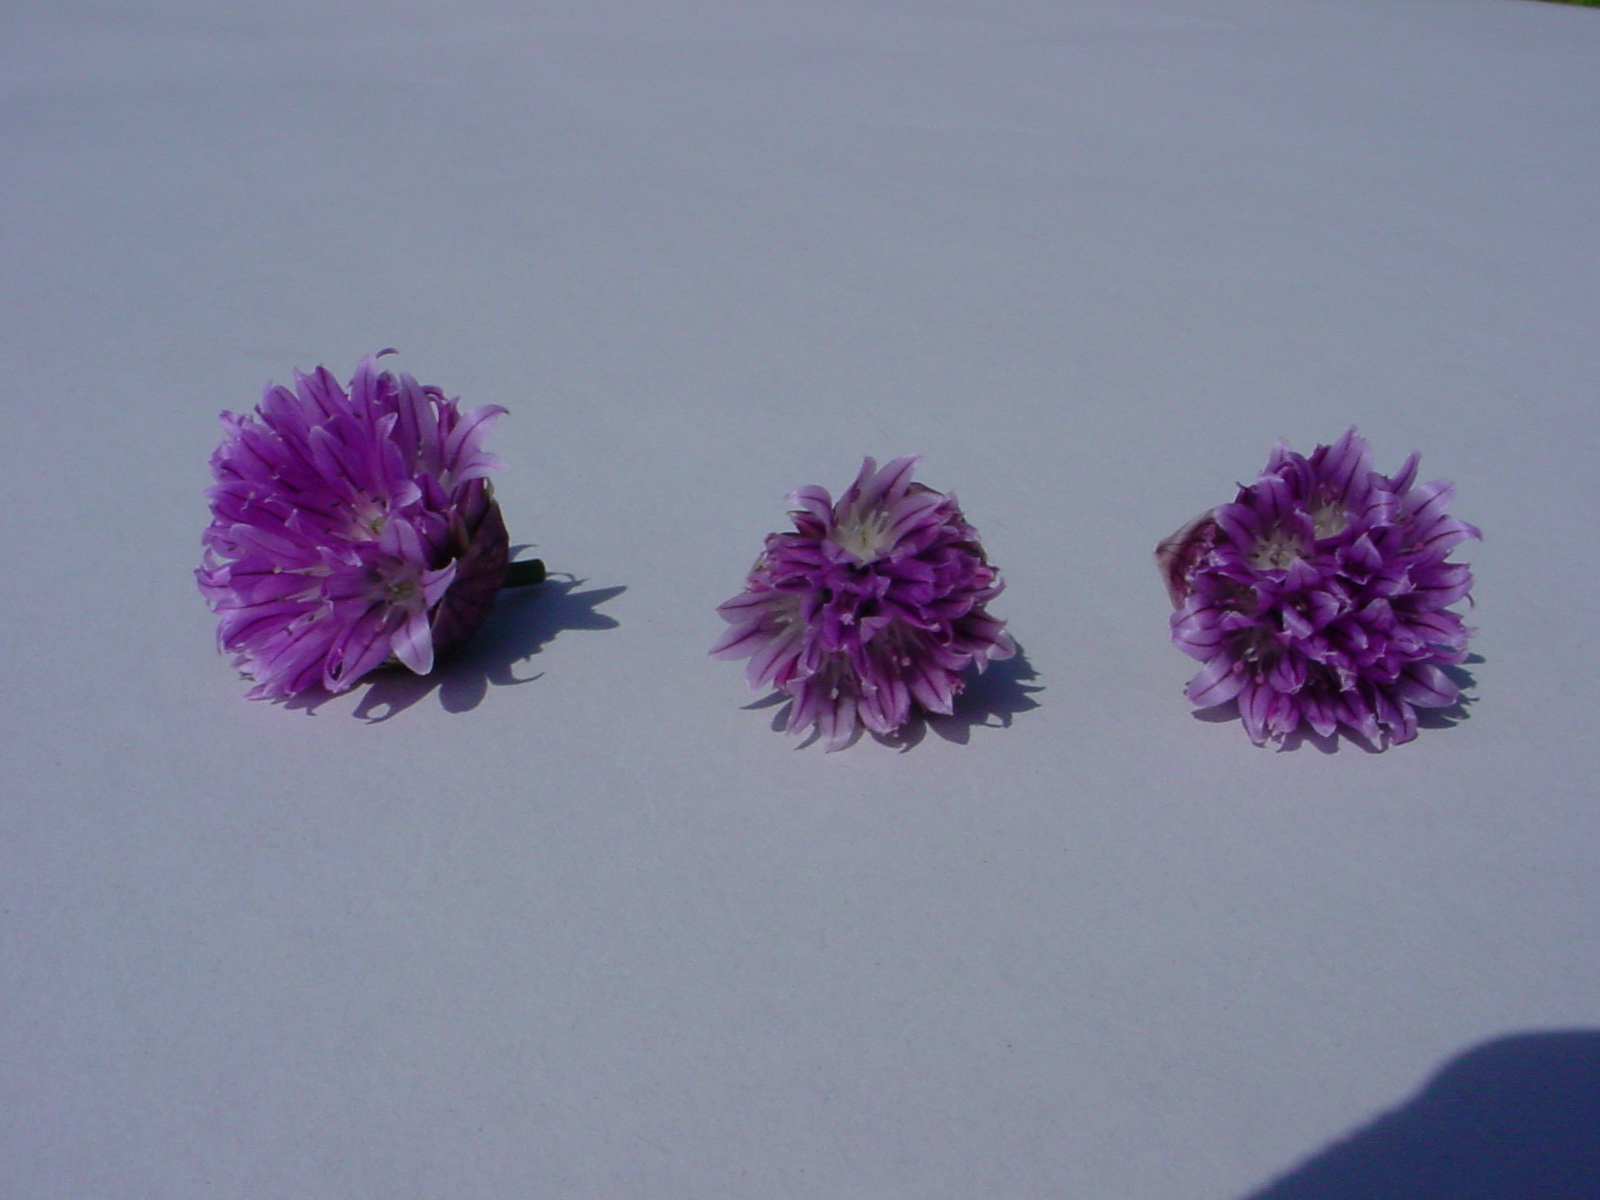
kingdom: Plantae
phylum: Tracheophyta
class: Liliopsida
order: Asparagales
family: Amaryllidaceae
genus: Allium
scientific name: Allium schoenoprasum
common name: Chives
